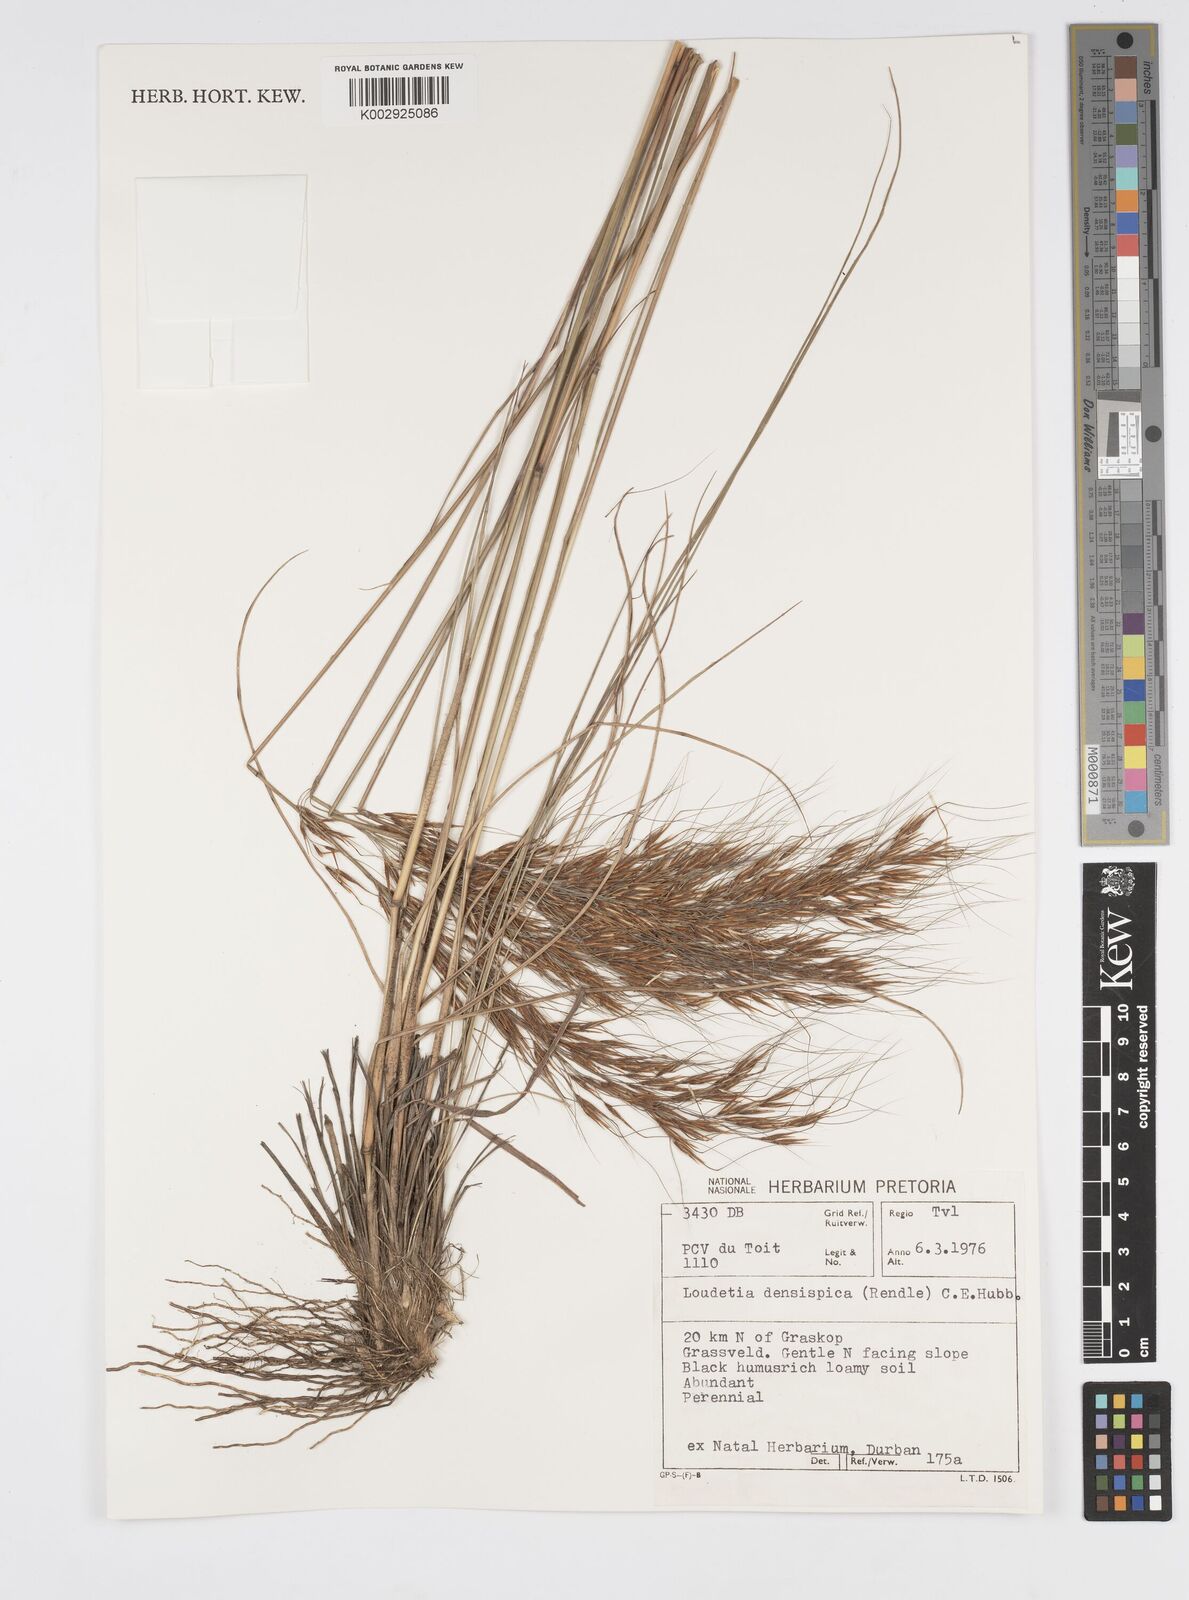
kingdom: Plantae
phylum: Tracheophyta
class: Liliopsida
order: Poales
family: Poaceae
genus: Loudetia
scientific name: Loudetia
